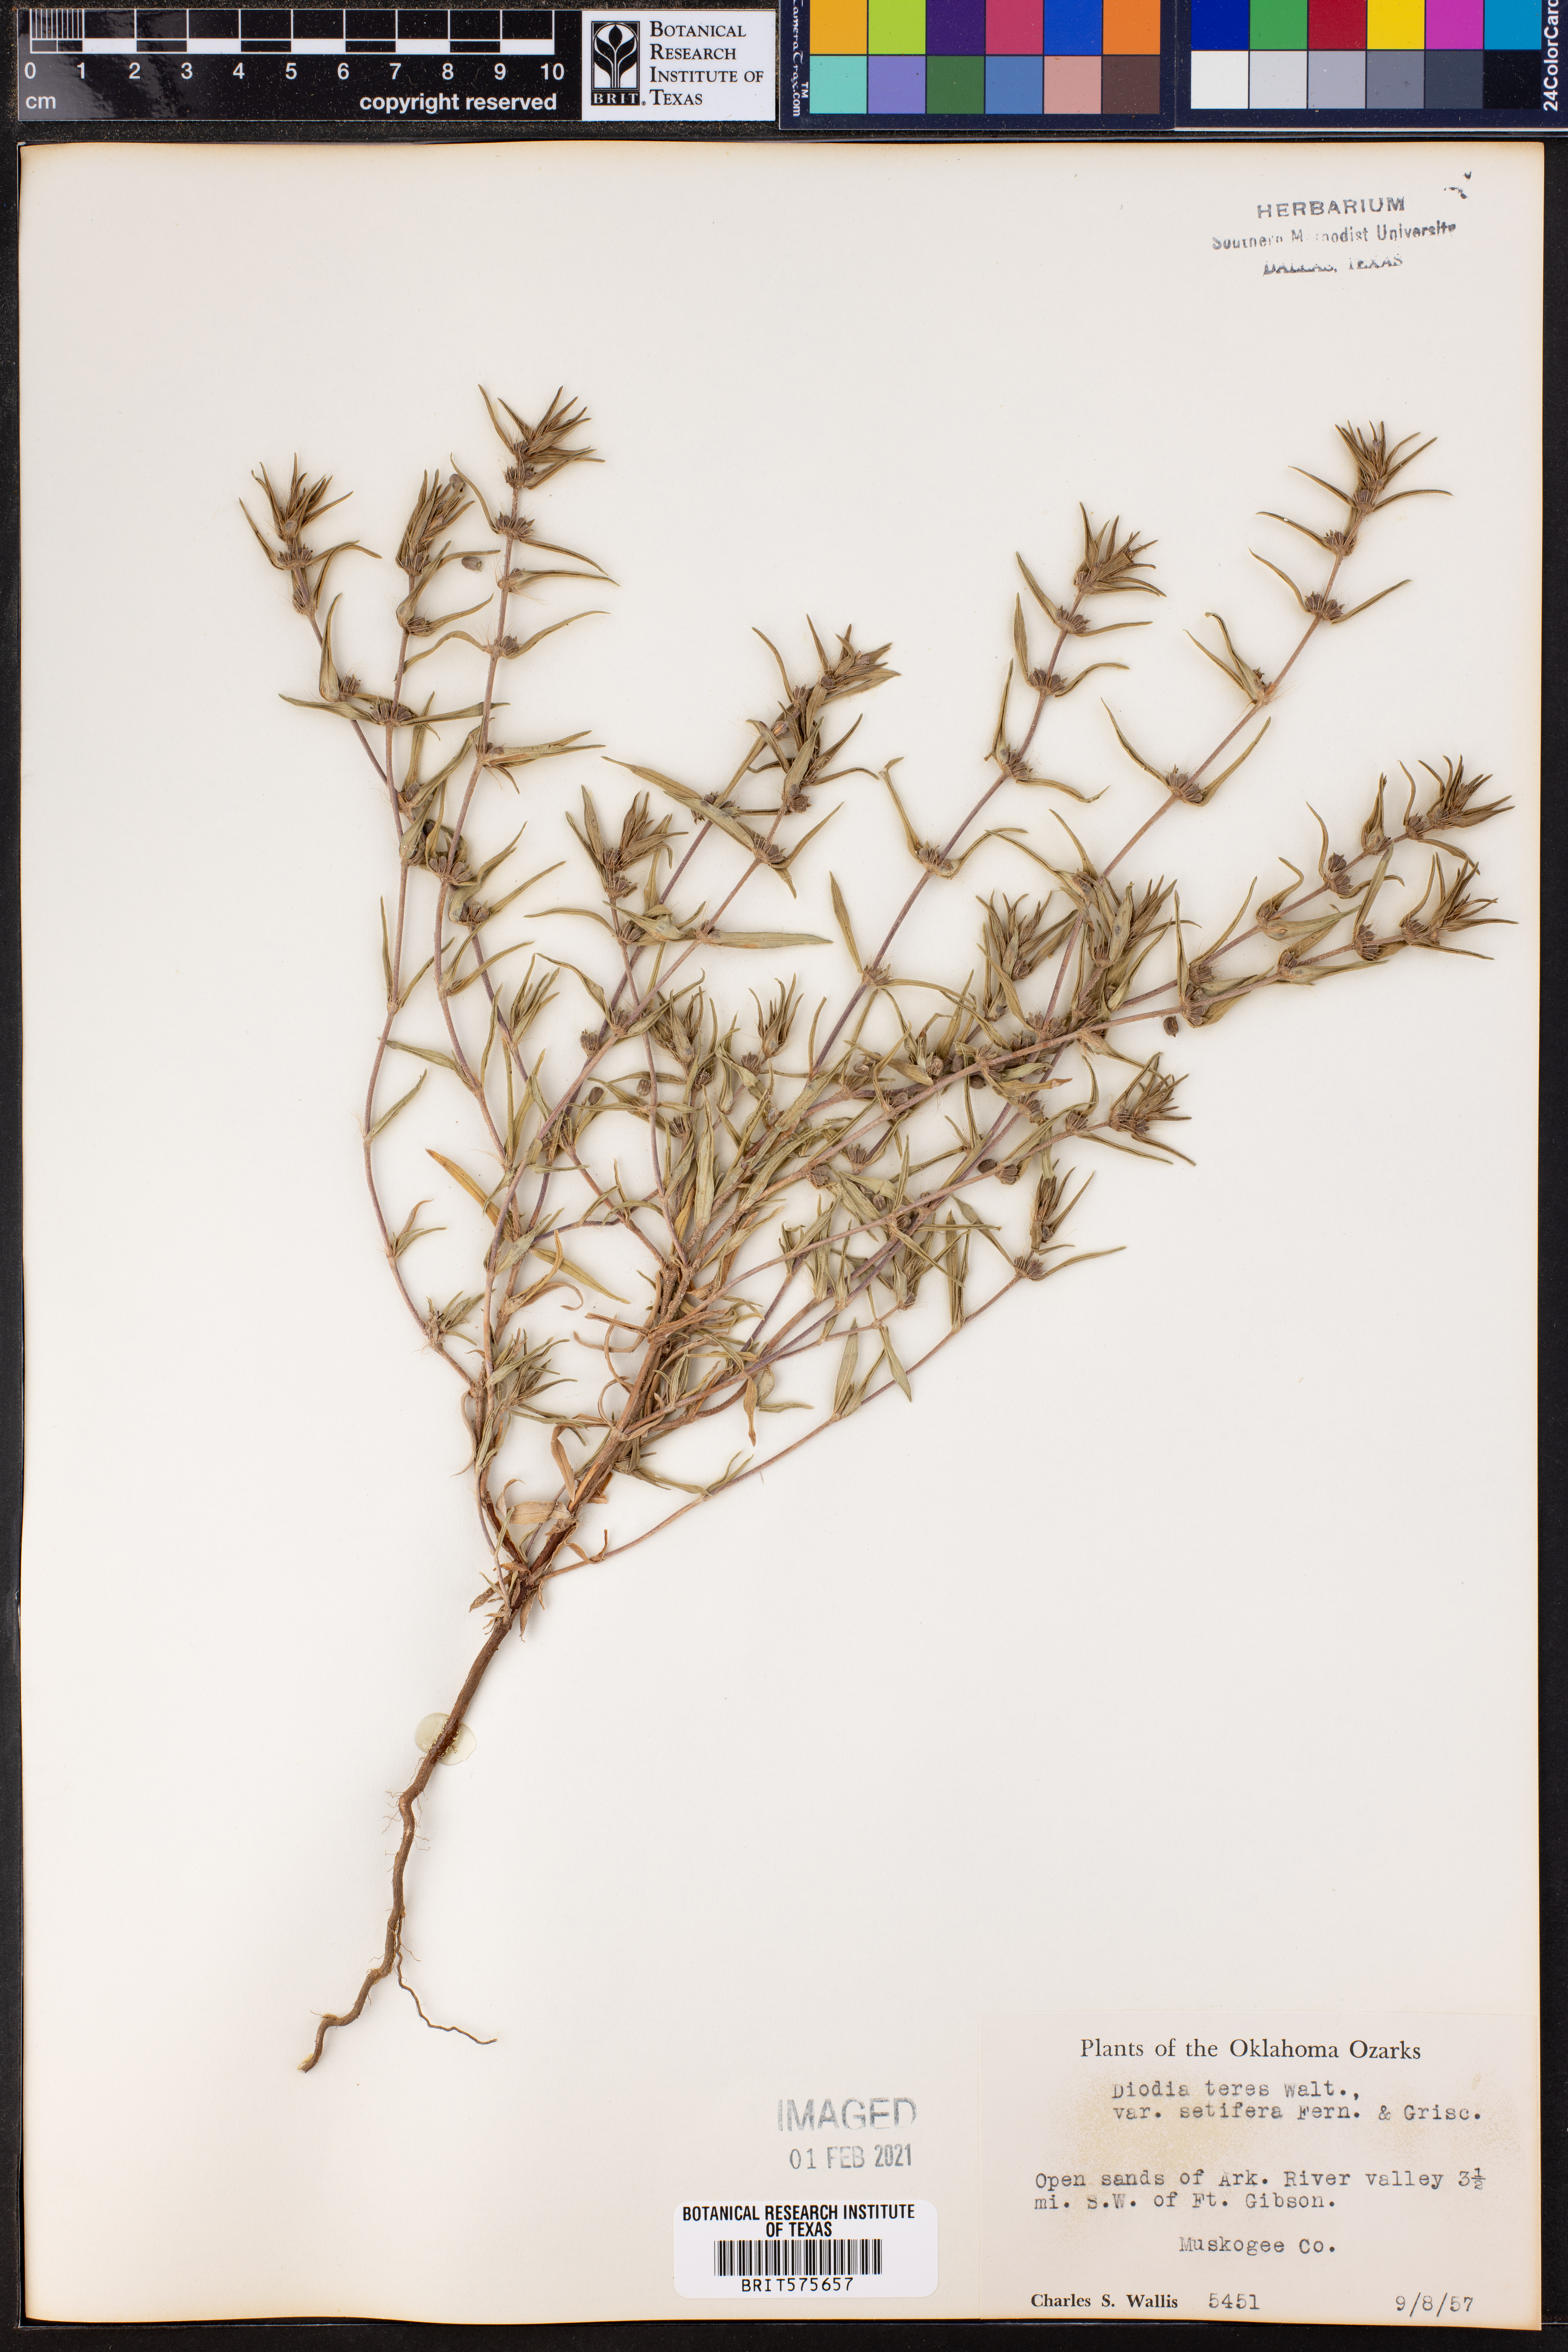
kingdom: Plantae
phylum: Tracheophyta
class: Magnoliopsida
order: Gentianales
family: Rubiaceae
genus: Hexasepalum
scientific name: Hexasepalum teres
